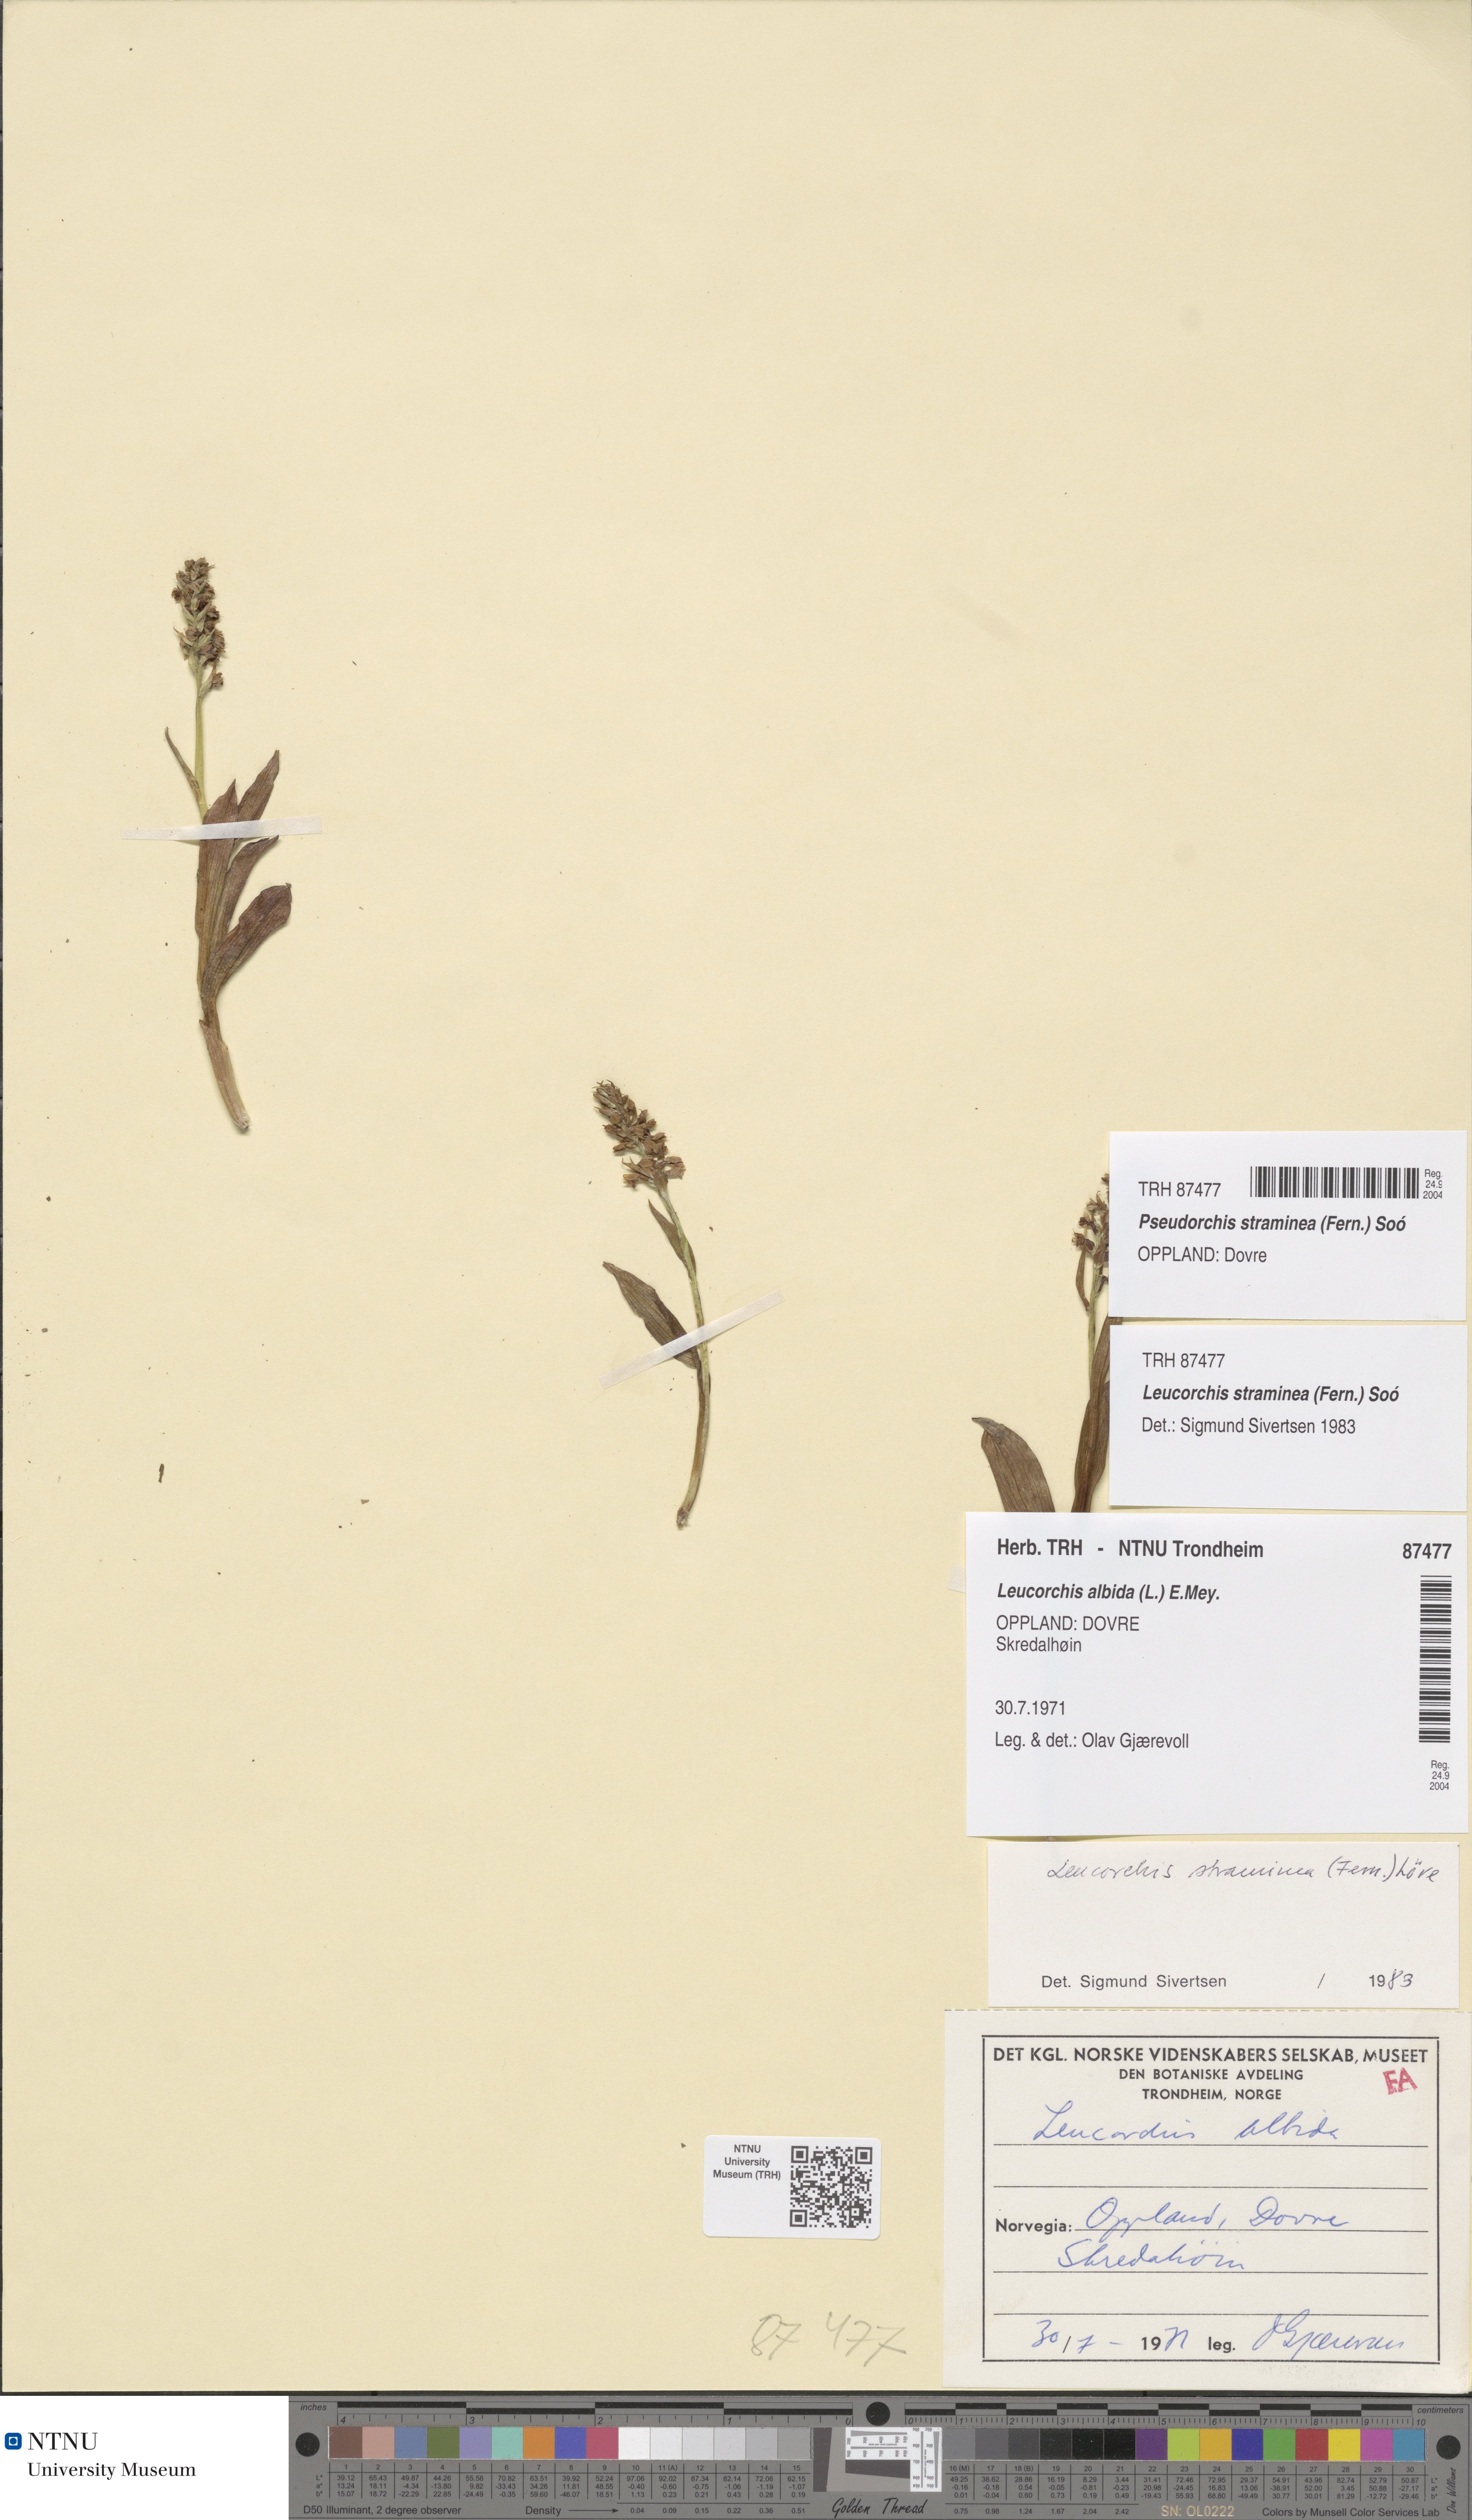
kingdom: Plantae
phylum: Tracheophyta
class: Liliopsida
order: Asparagales
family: Orchidaceae
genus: Pseudorchis
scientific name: Pseudorchis straminea
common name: Vanilla-scented bog orchid
